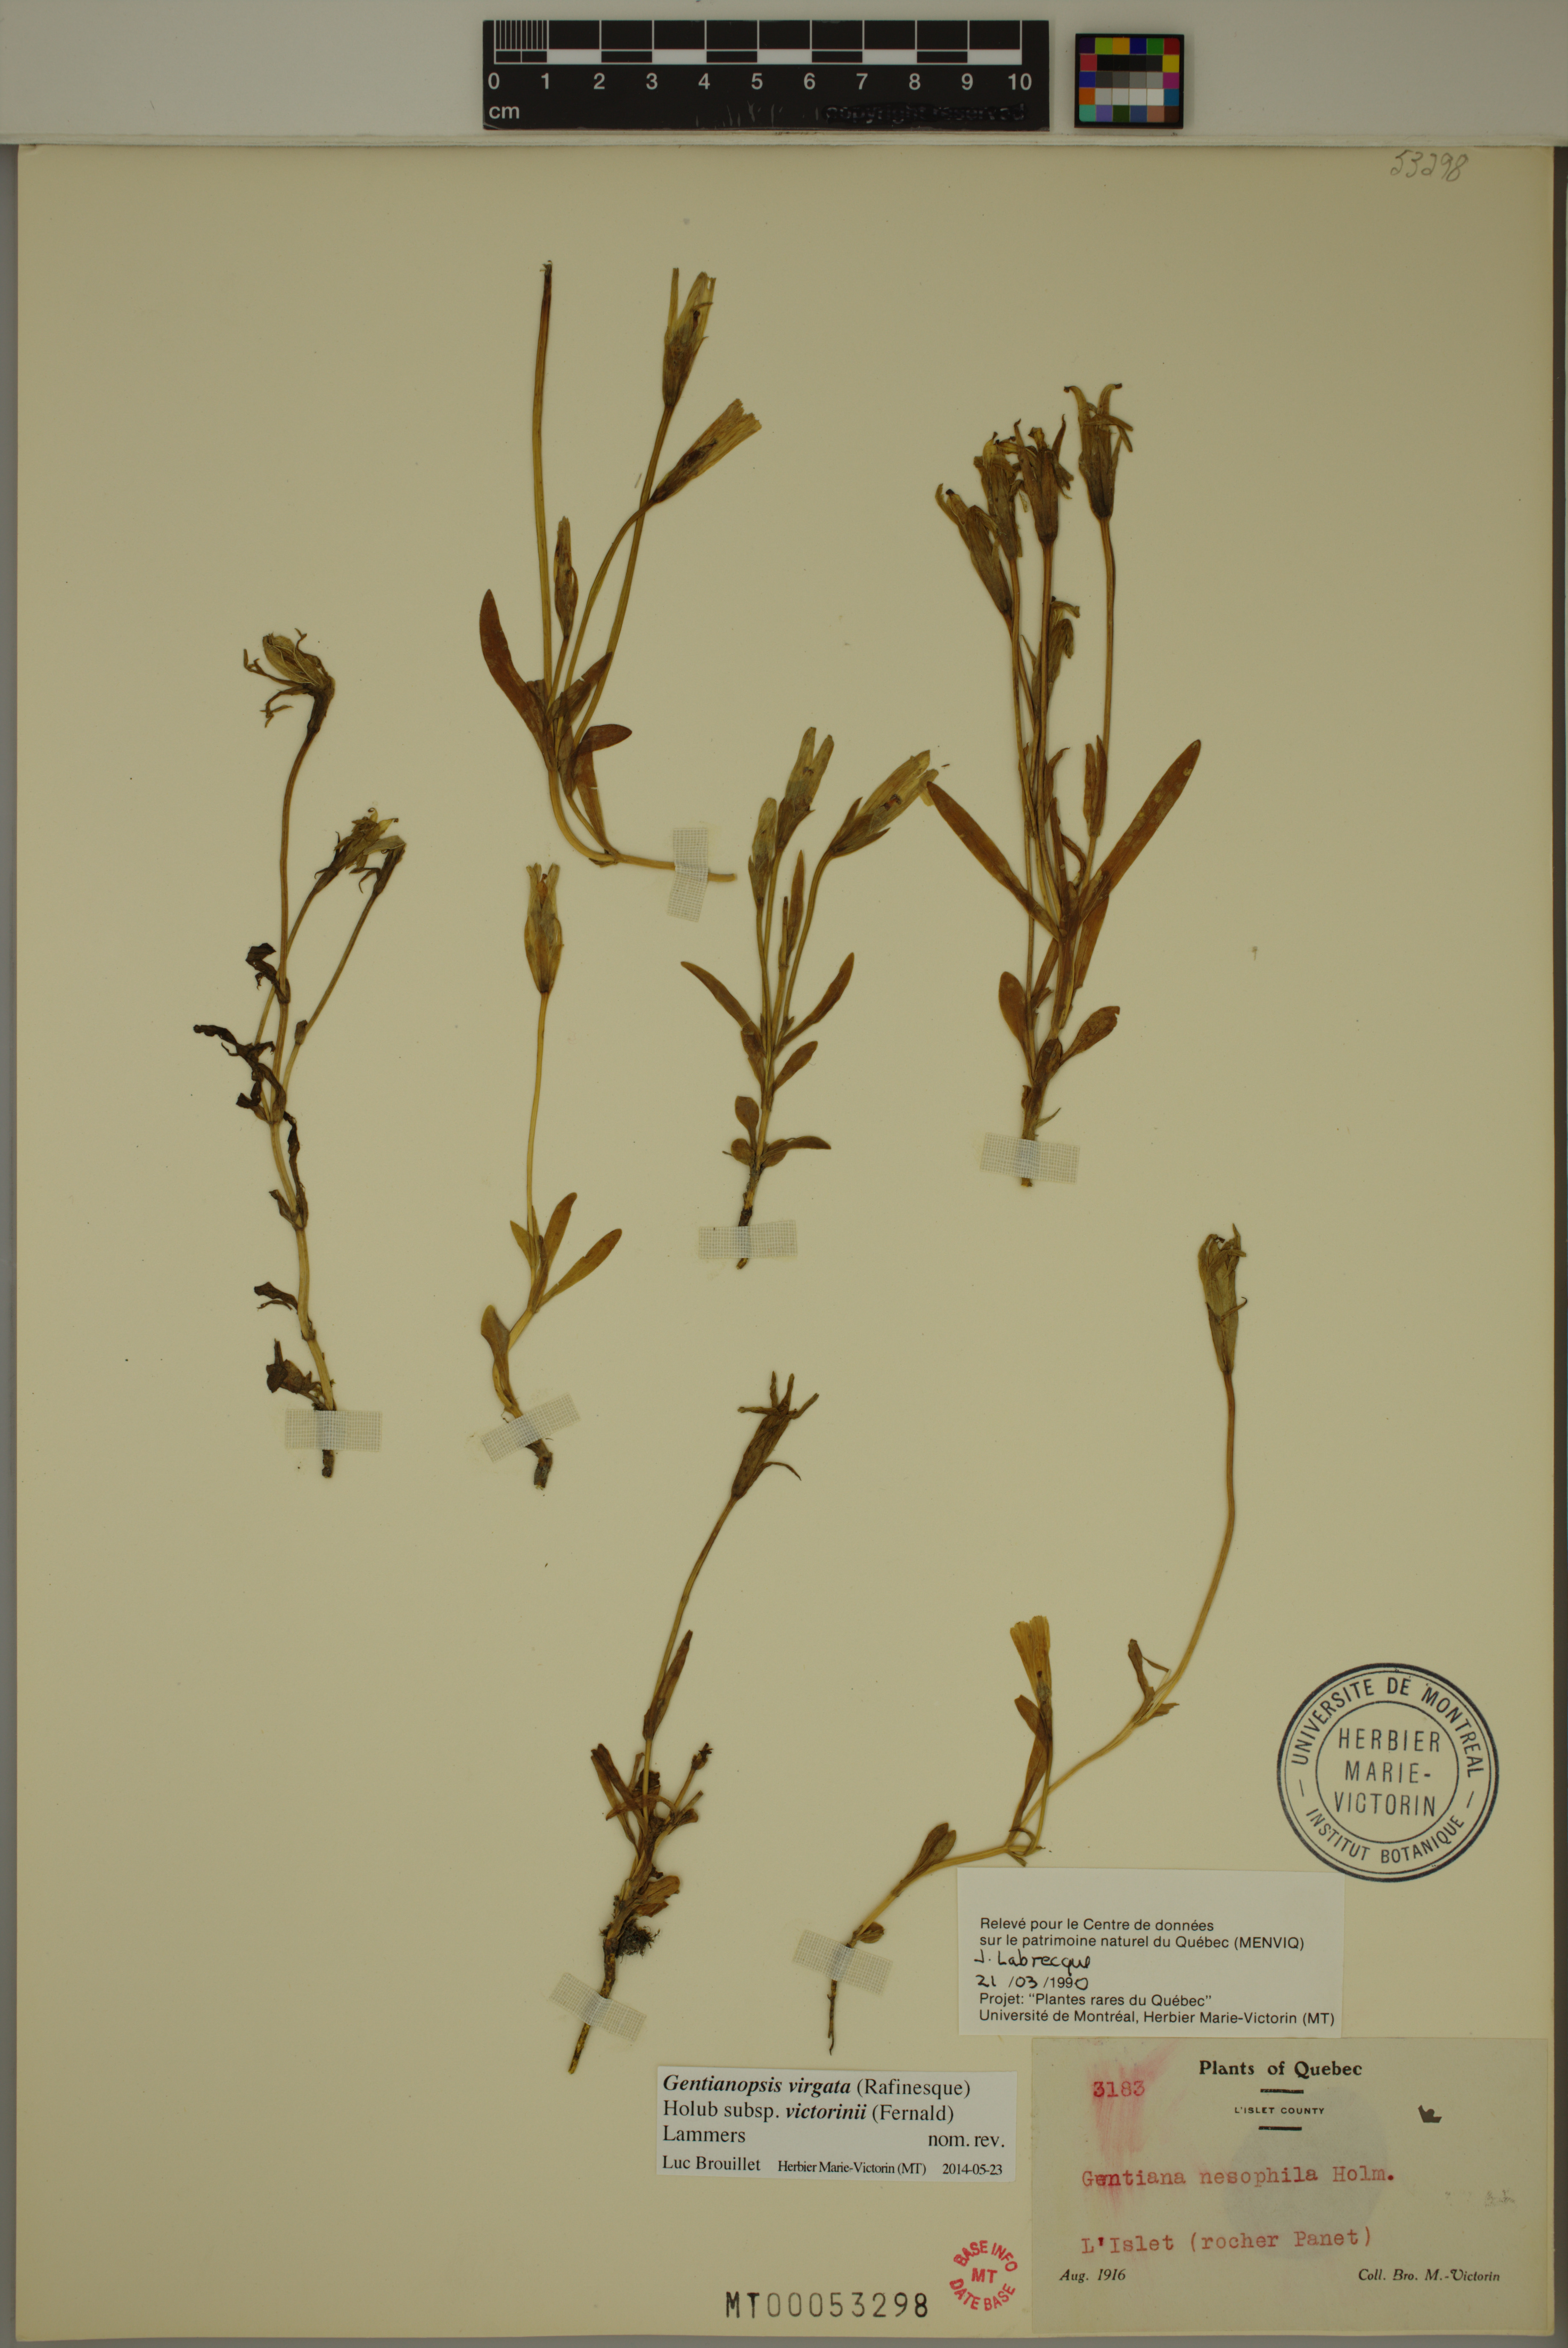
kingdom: Plantae
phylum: Tracheophyta
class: Magnoliopsida
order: Gentianales
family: Gentianaceae
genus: Gentianopsis
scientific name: Gentianopsis victorinii
